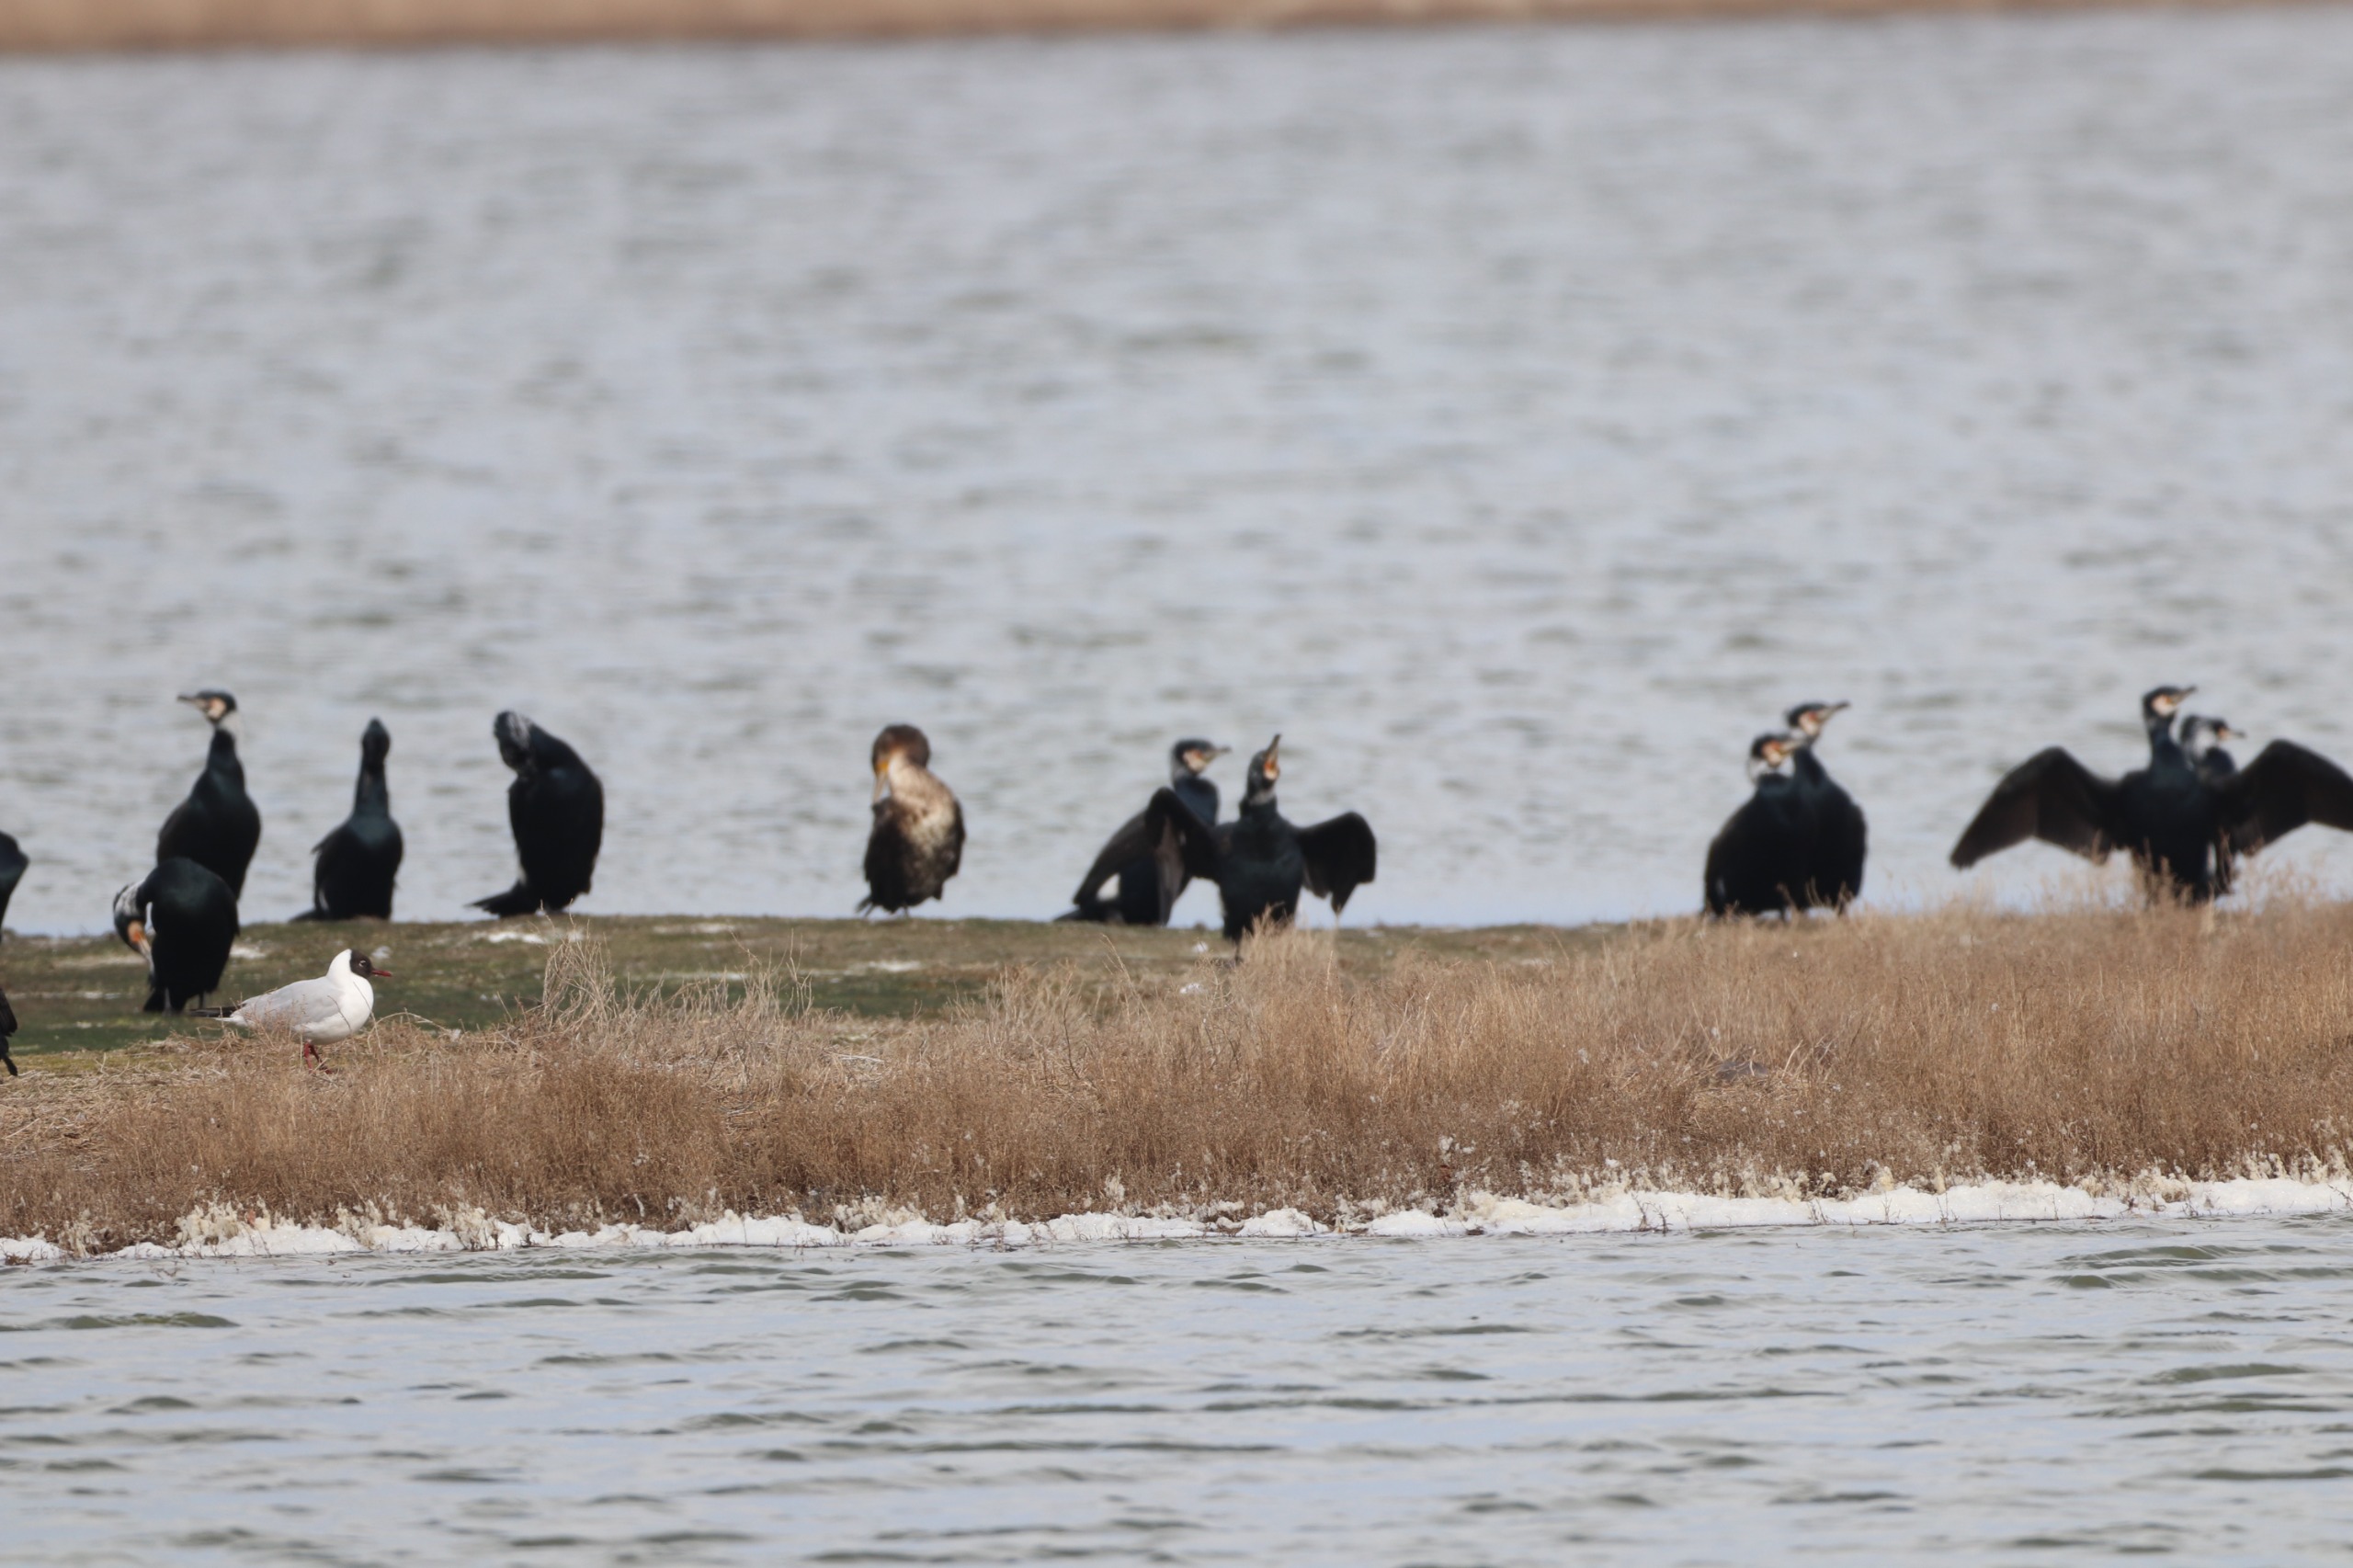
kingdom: Animalia
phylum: Chordata
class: Aves
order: Suliformes
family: Phalacrocoracidae
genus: Phalacrocorax
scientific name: Phalacrocorax carbo
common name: Skarv
